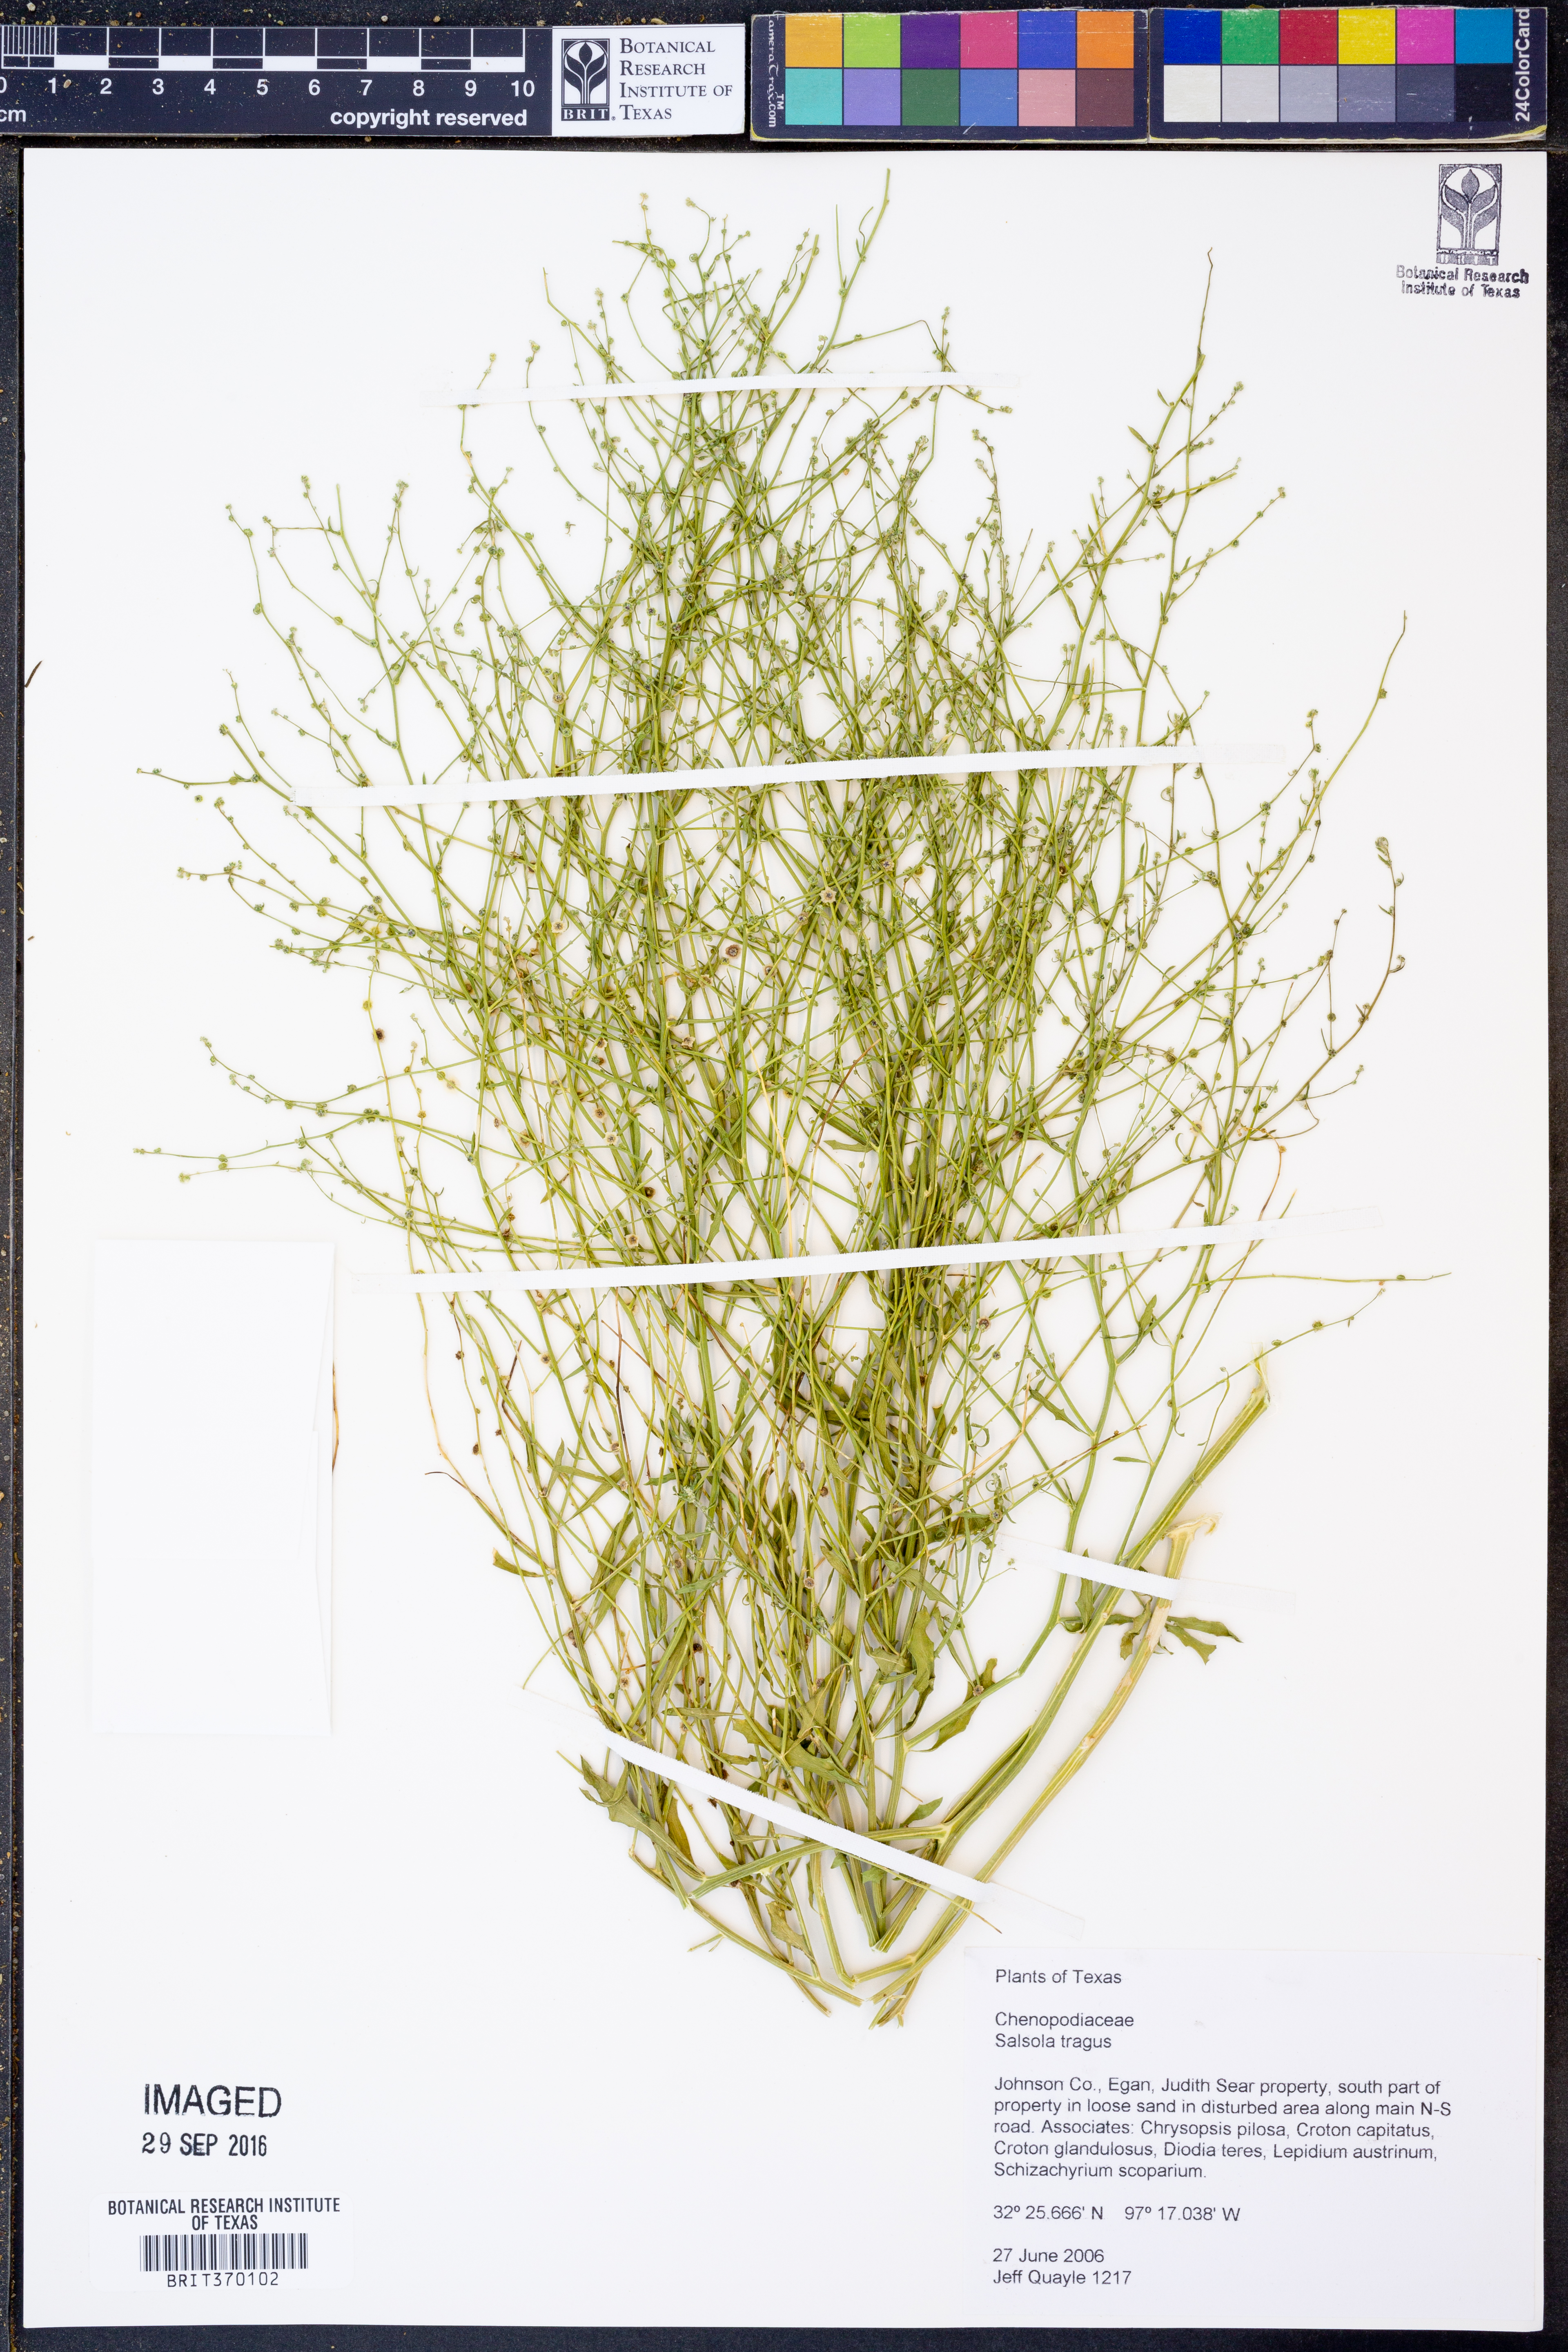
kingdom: Plantae
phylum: Tracheophyta
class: Magnoliopsida
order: Caryophyllales
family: Amaranthaceae
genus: Salsola
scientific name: Salsola tragus
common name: Prickly russian thistle
